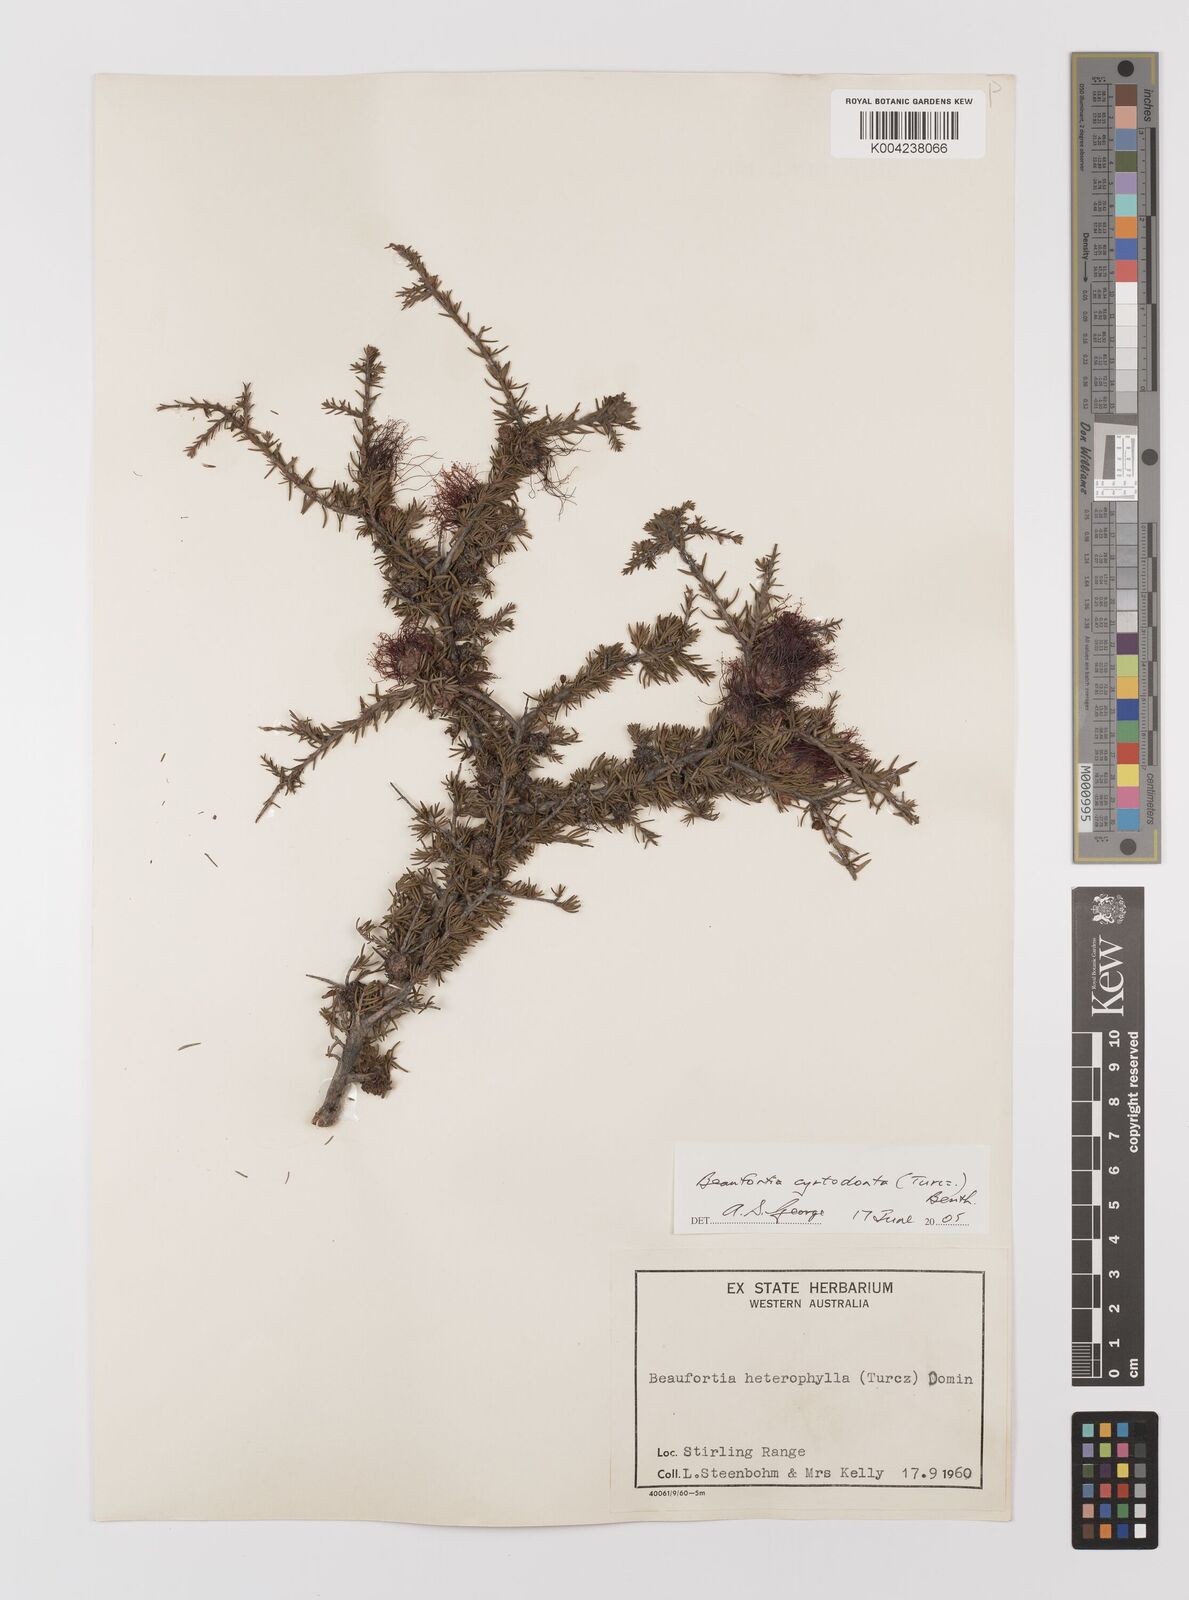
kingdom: Plantae
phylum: Tracheophyta
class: Magnoliopsida
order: Myrtales
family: Myrtaceae
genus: Melaleuca
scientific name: Melaleuca cyrtodonta
